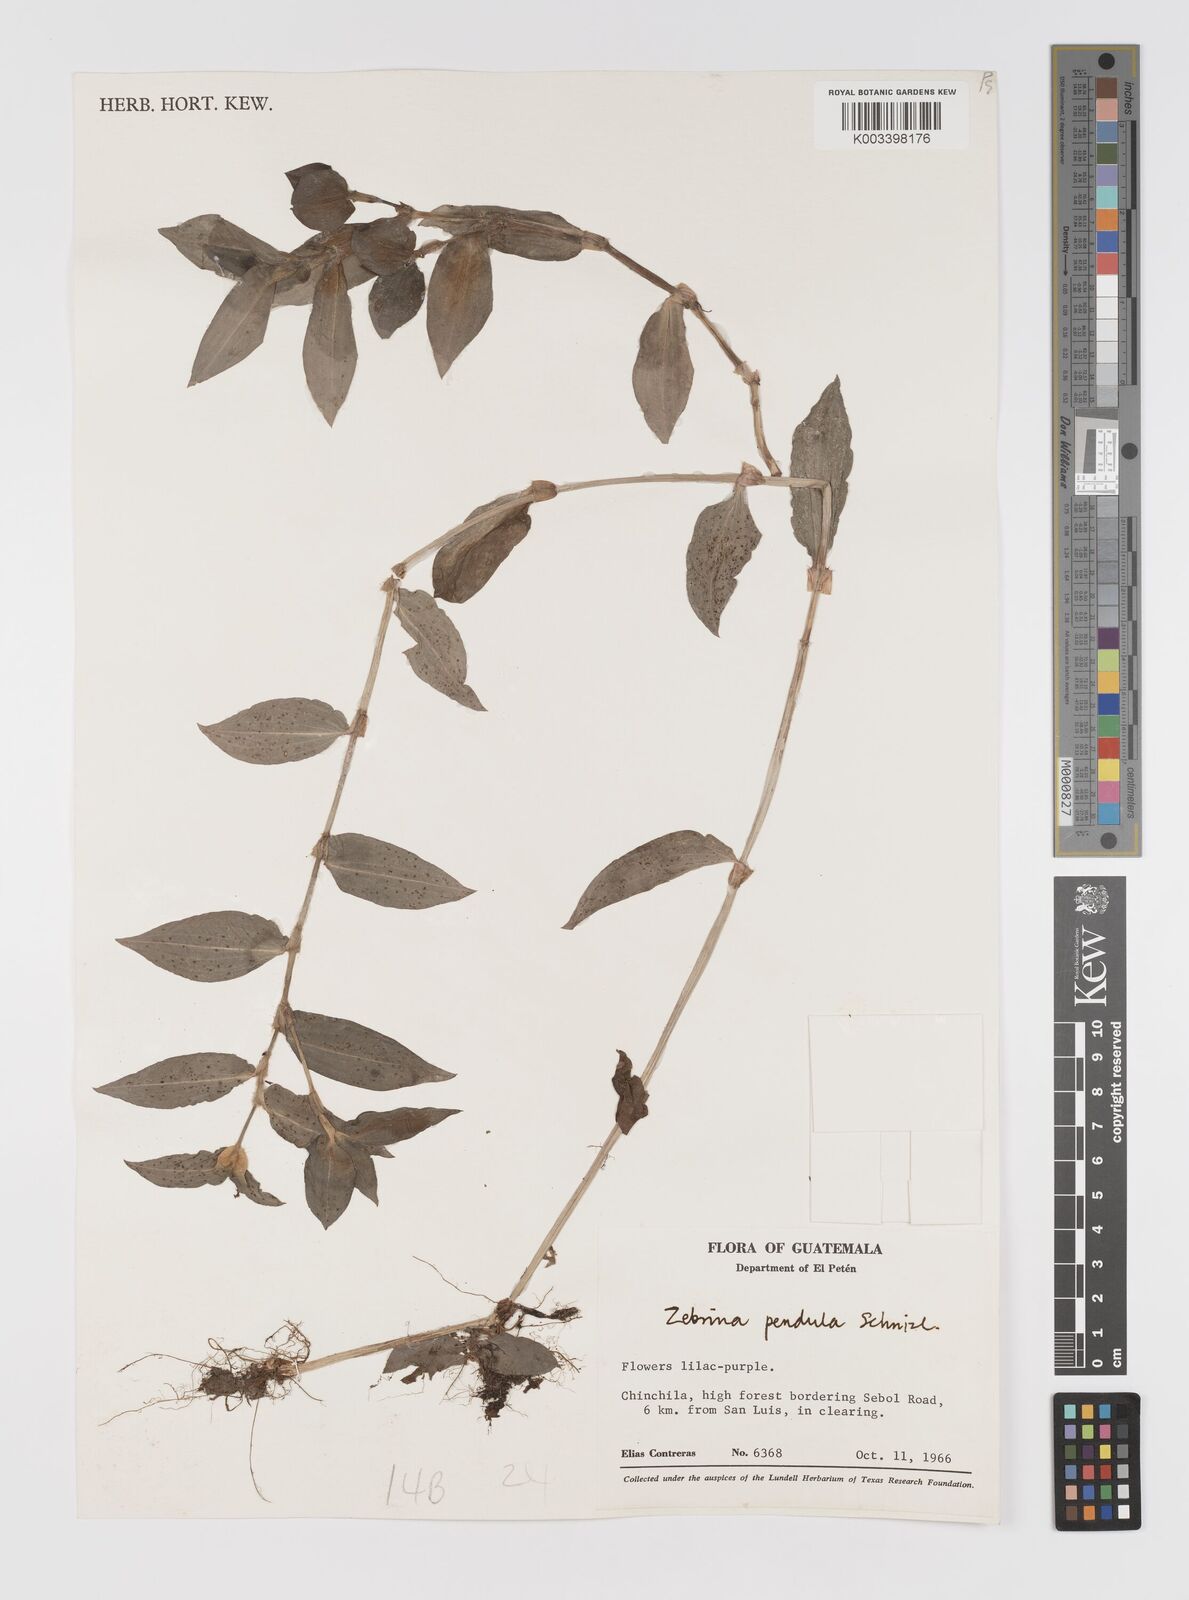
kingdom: Plantae
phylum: Tracheophyta
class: Liliopsida
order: Commelinales
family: Commelinaceae
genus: Tradescantia
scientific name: Tradescantia zebrina
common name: Inchplant
